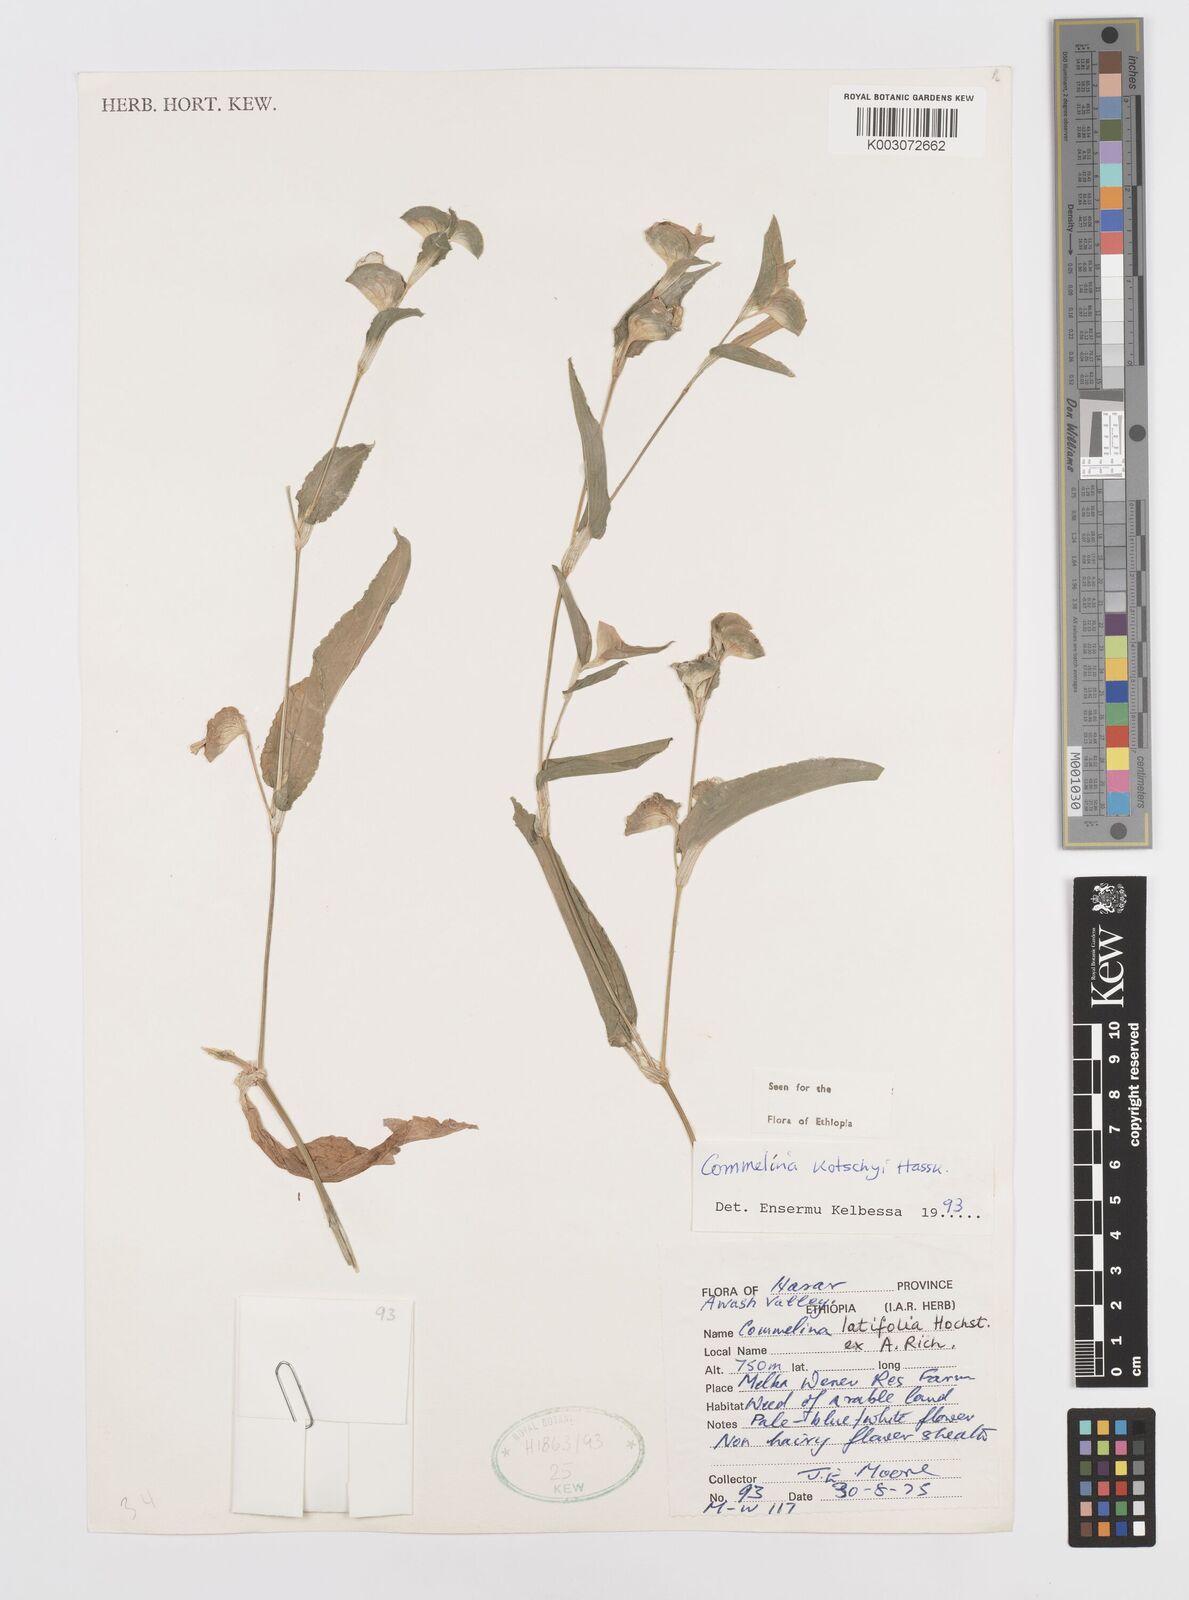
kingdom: Plantae
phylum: Tracheophyta
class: Liliopsida
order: Commelinales
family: Commelinaceae
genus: Commelina
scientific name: Commelina kotschyi
